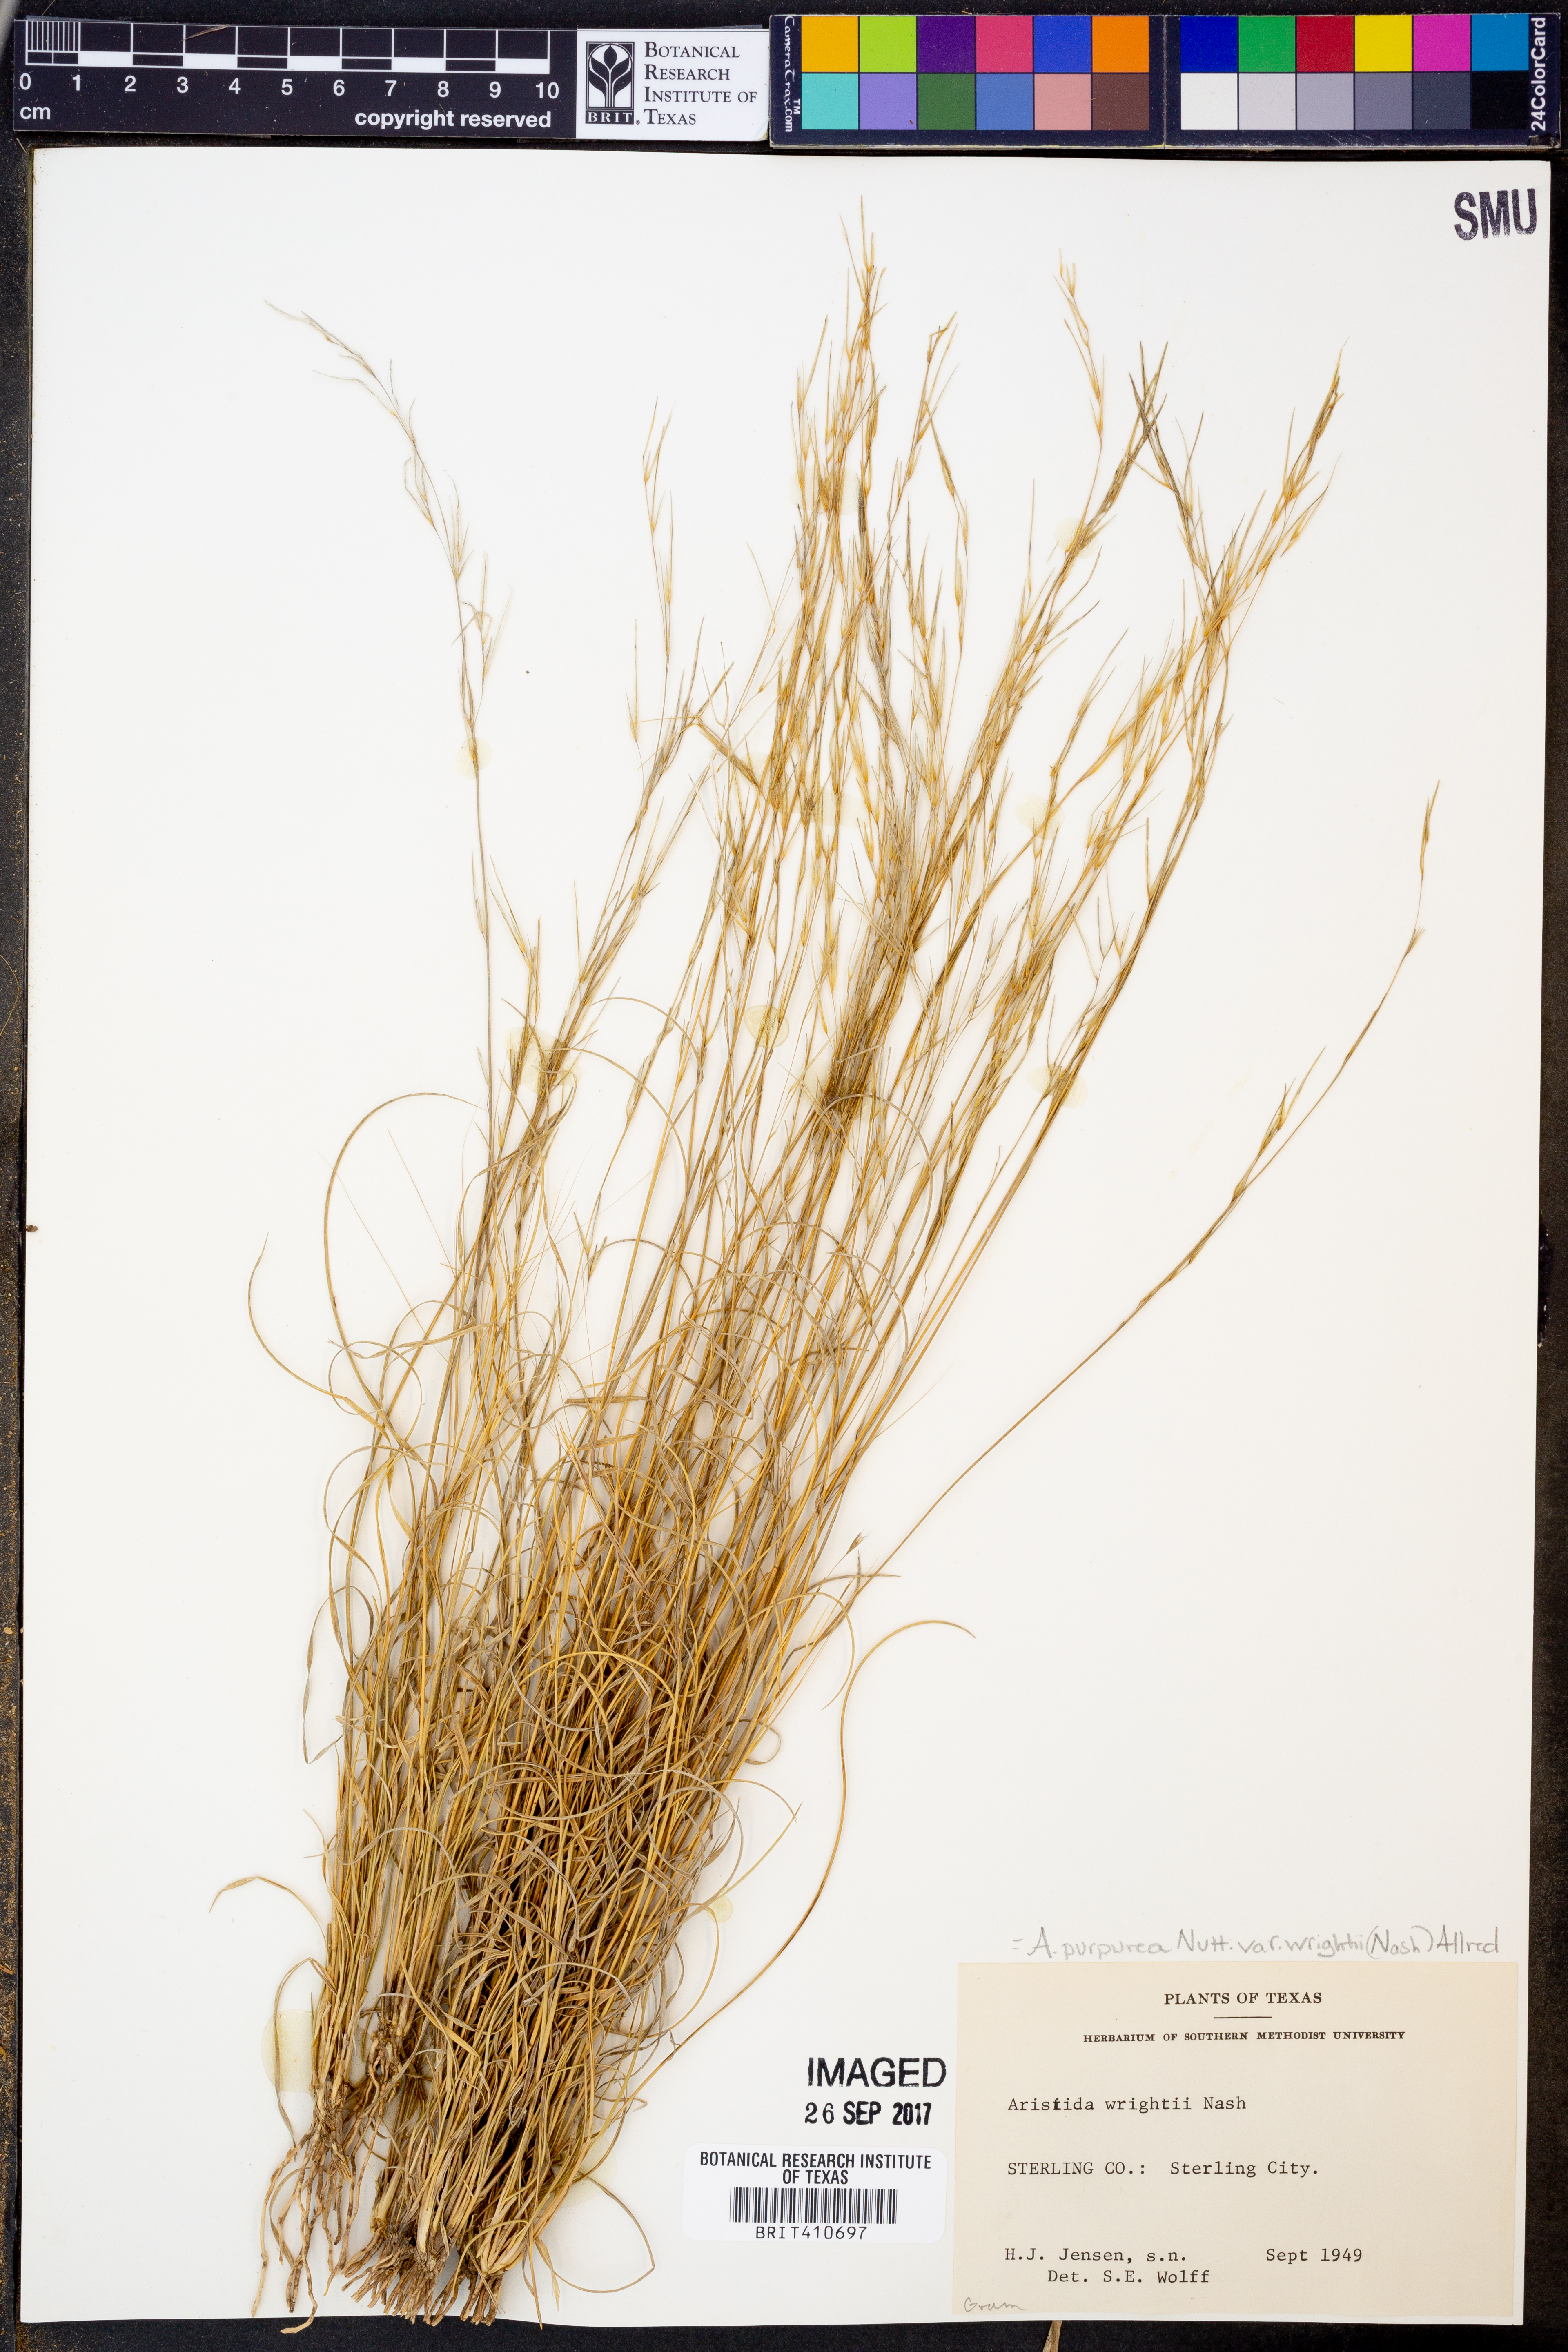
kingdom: Plantae
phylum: Tracheophyta
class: Liliopsida
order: Poales
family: Poaceae
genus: Aristida
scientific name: Aristida wrightii
